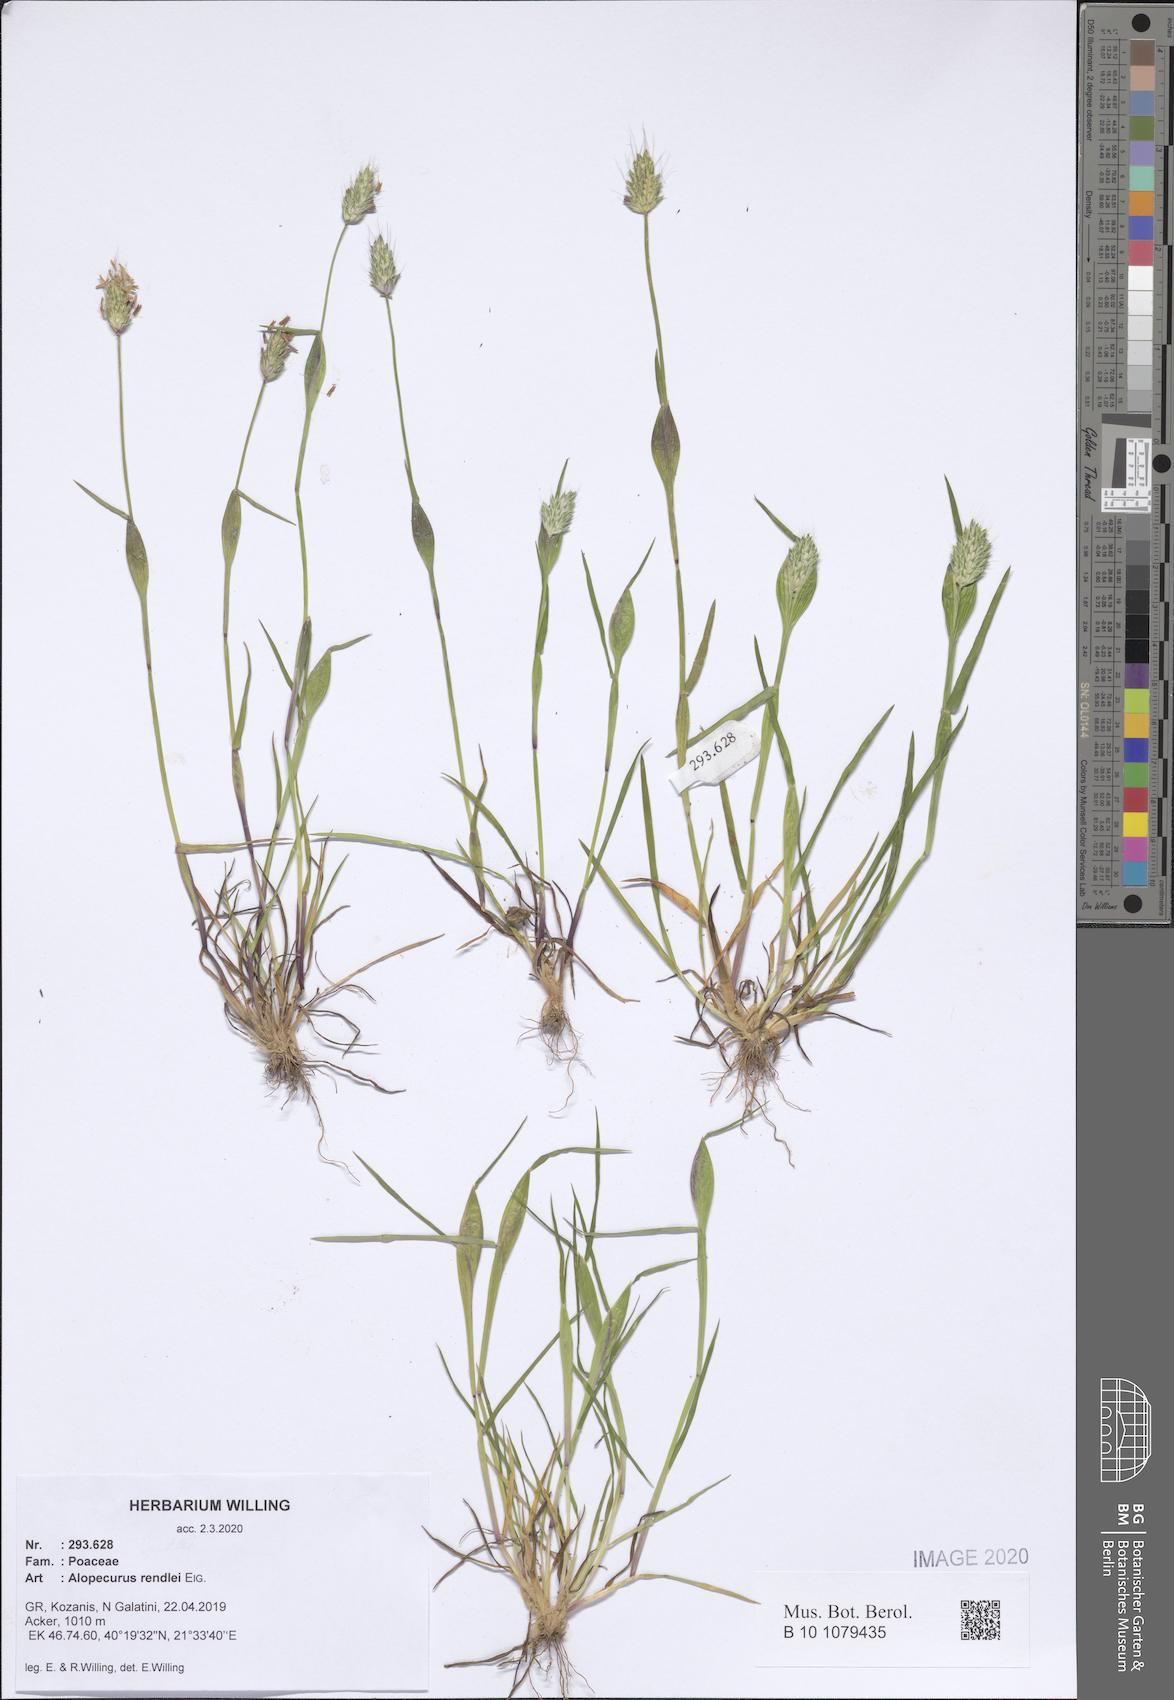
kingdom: Plantae
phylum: Tracheophyta
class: Liliopsida
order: Poales
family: Poaceae
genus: Alopecurus
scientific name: Alopecurus rendlei
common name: Rendle's meadow foxtail
